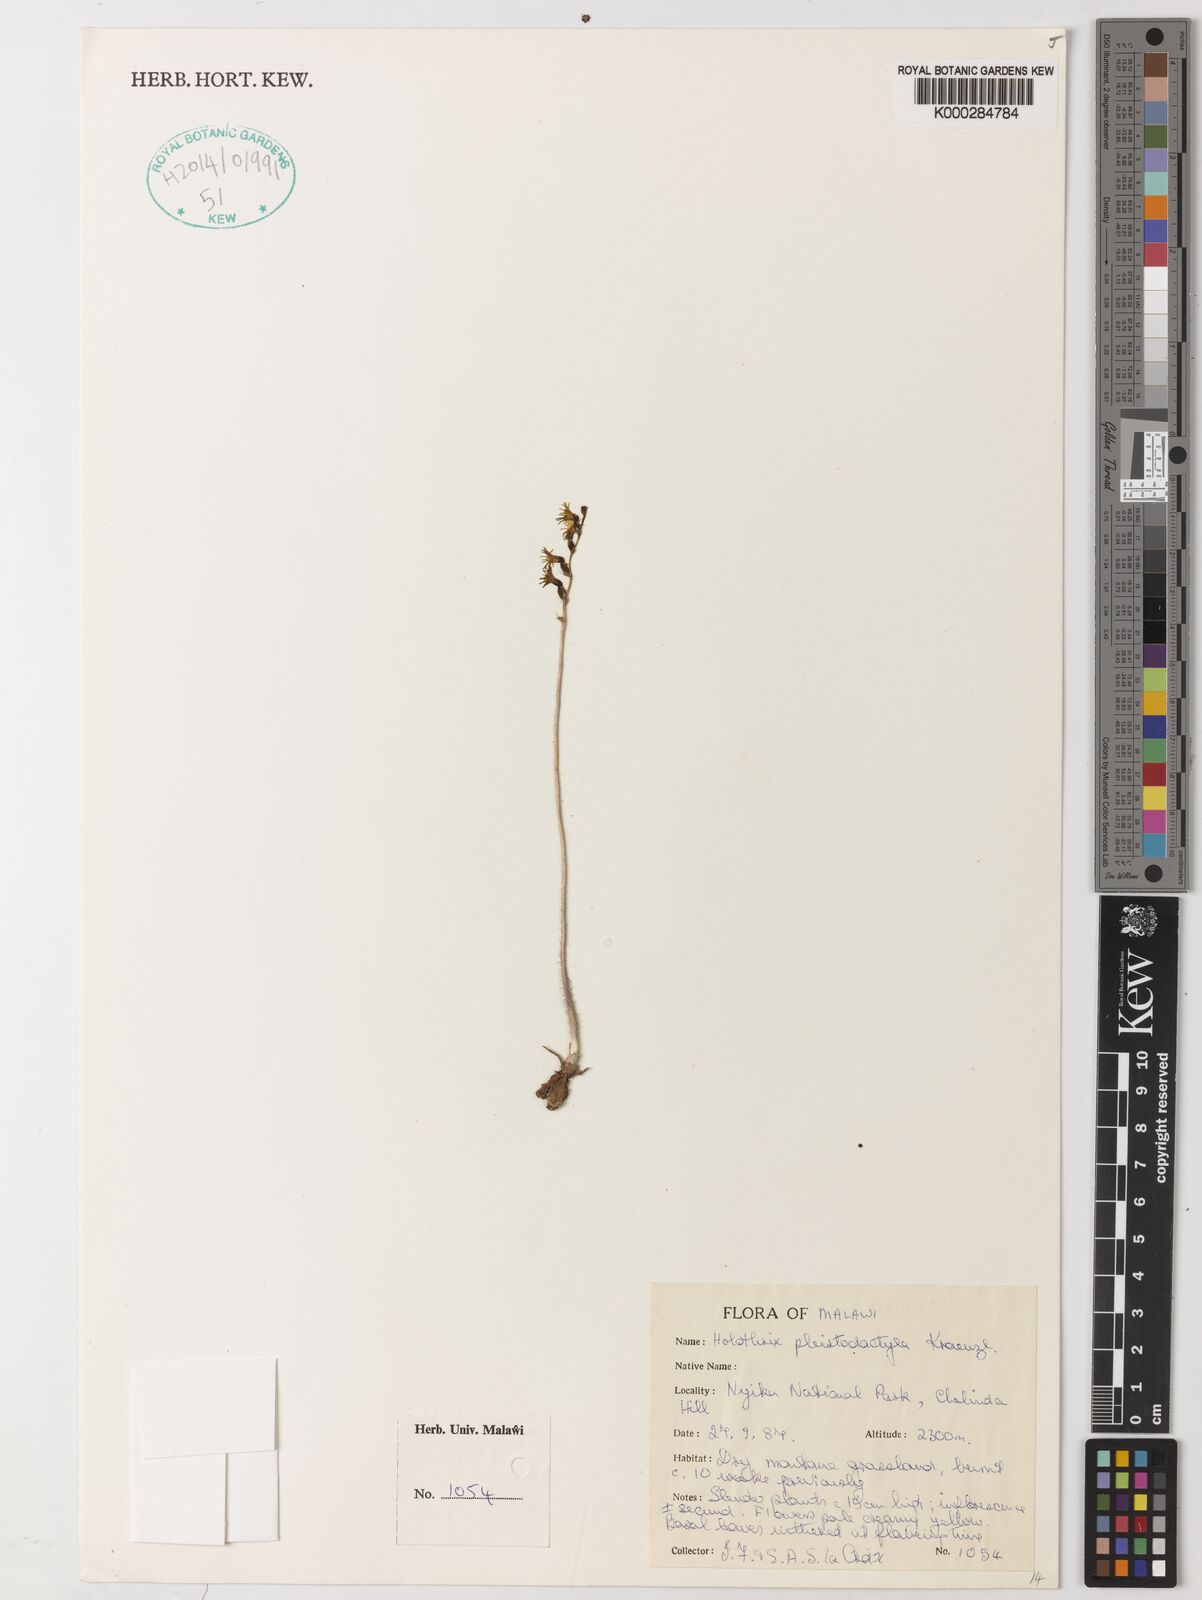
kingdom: Plantae
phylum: Tracheophyta
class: Liliopsida
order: Asparagales
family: Orchidaceae
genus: Holothrix
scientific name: Holothrix pleistodactyla
